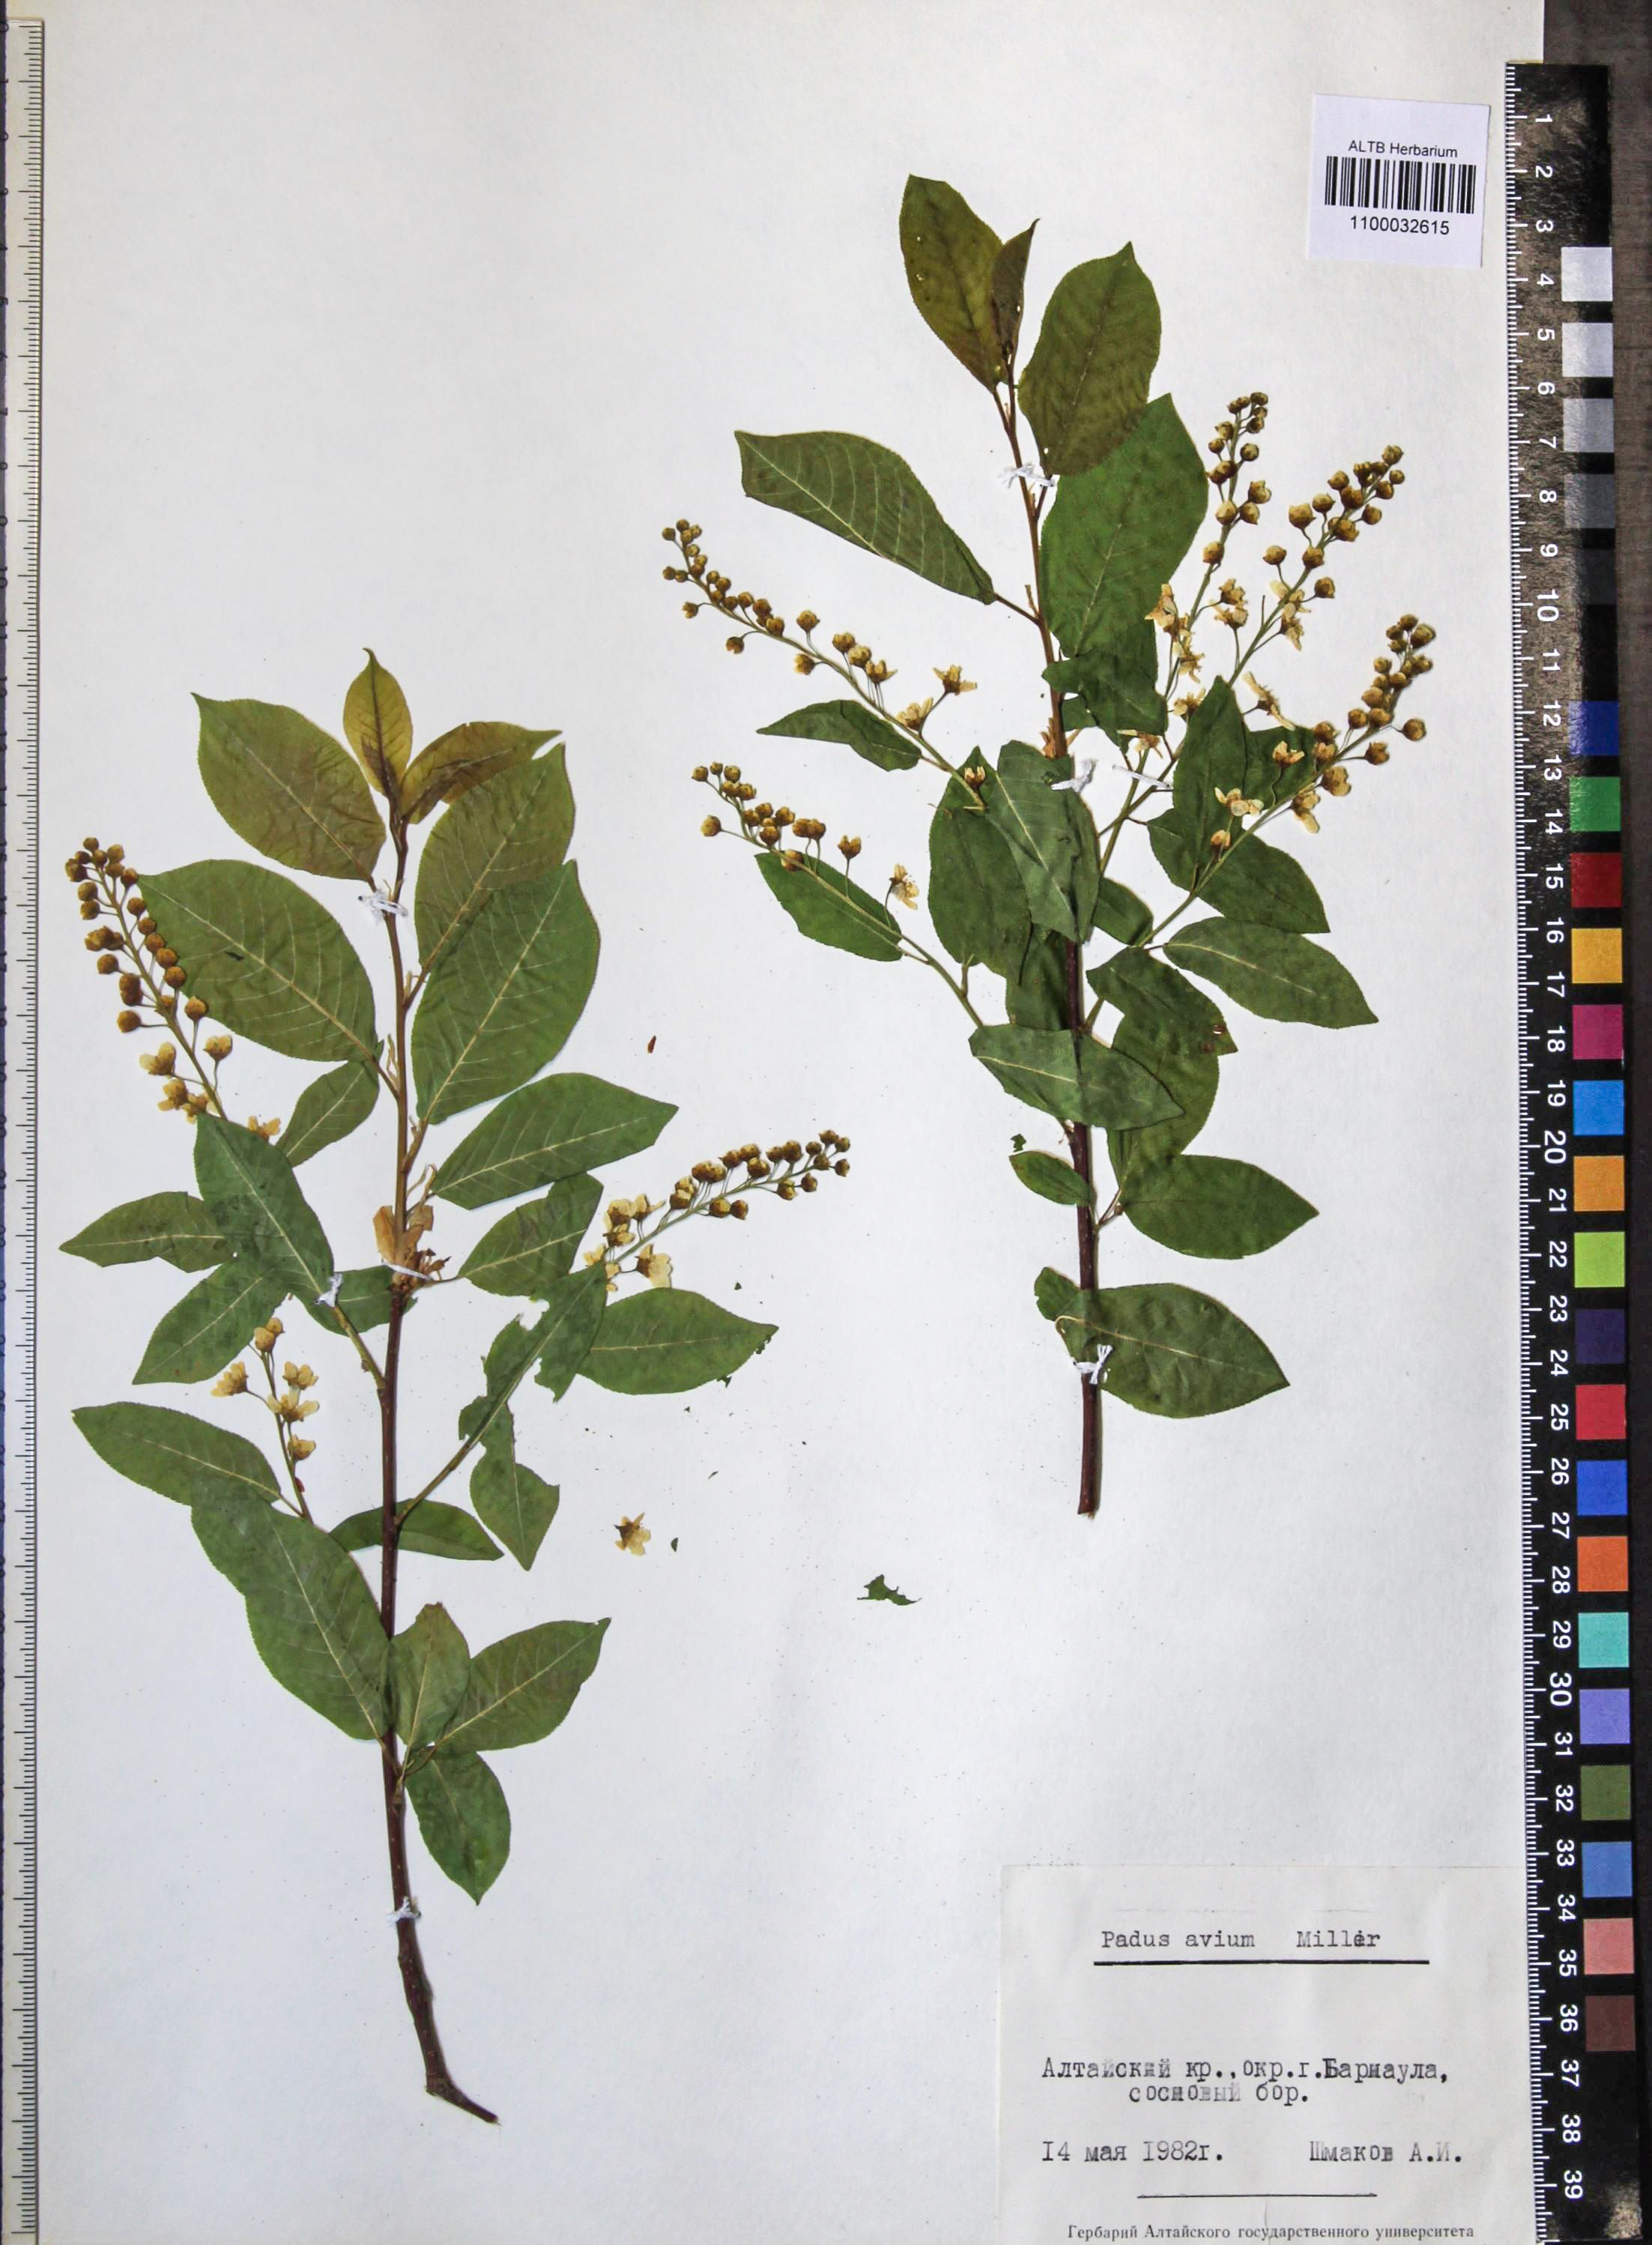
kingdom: Plantae
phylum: Tracheophyta
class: Magnoliopsida
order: Rosales
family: Rosaceae
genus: Prunus
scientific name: Prunus padus
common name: Bird cherry
